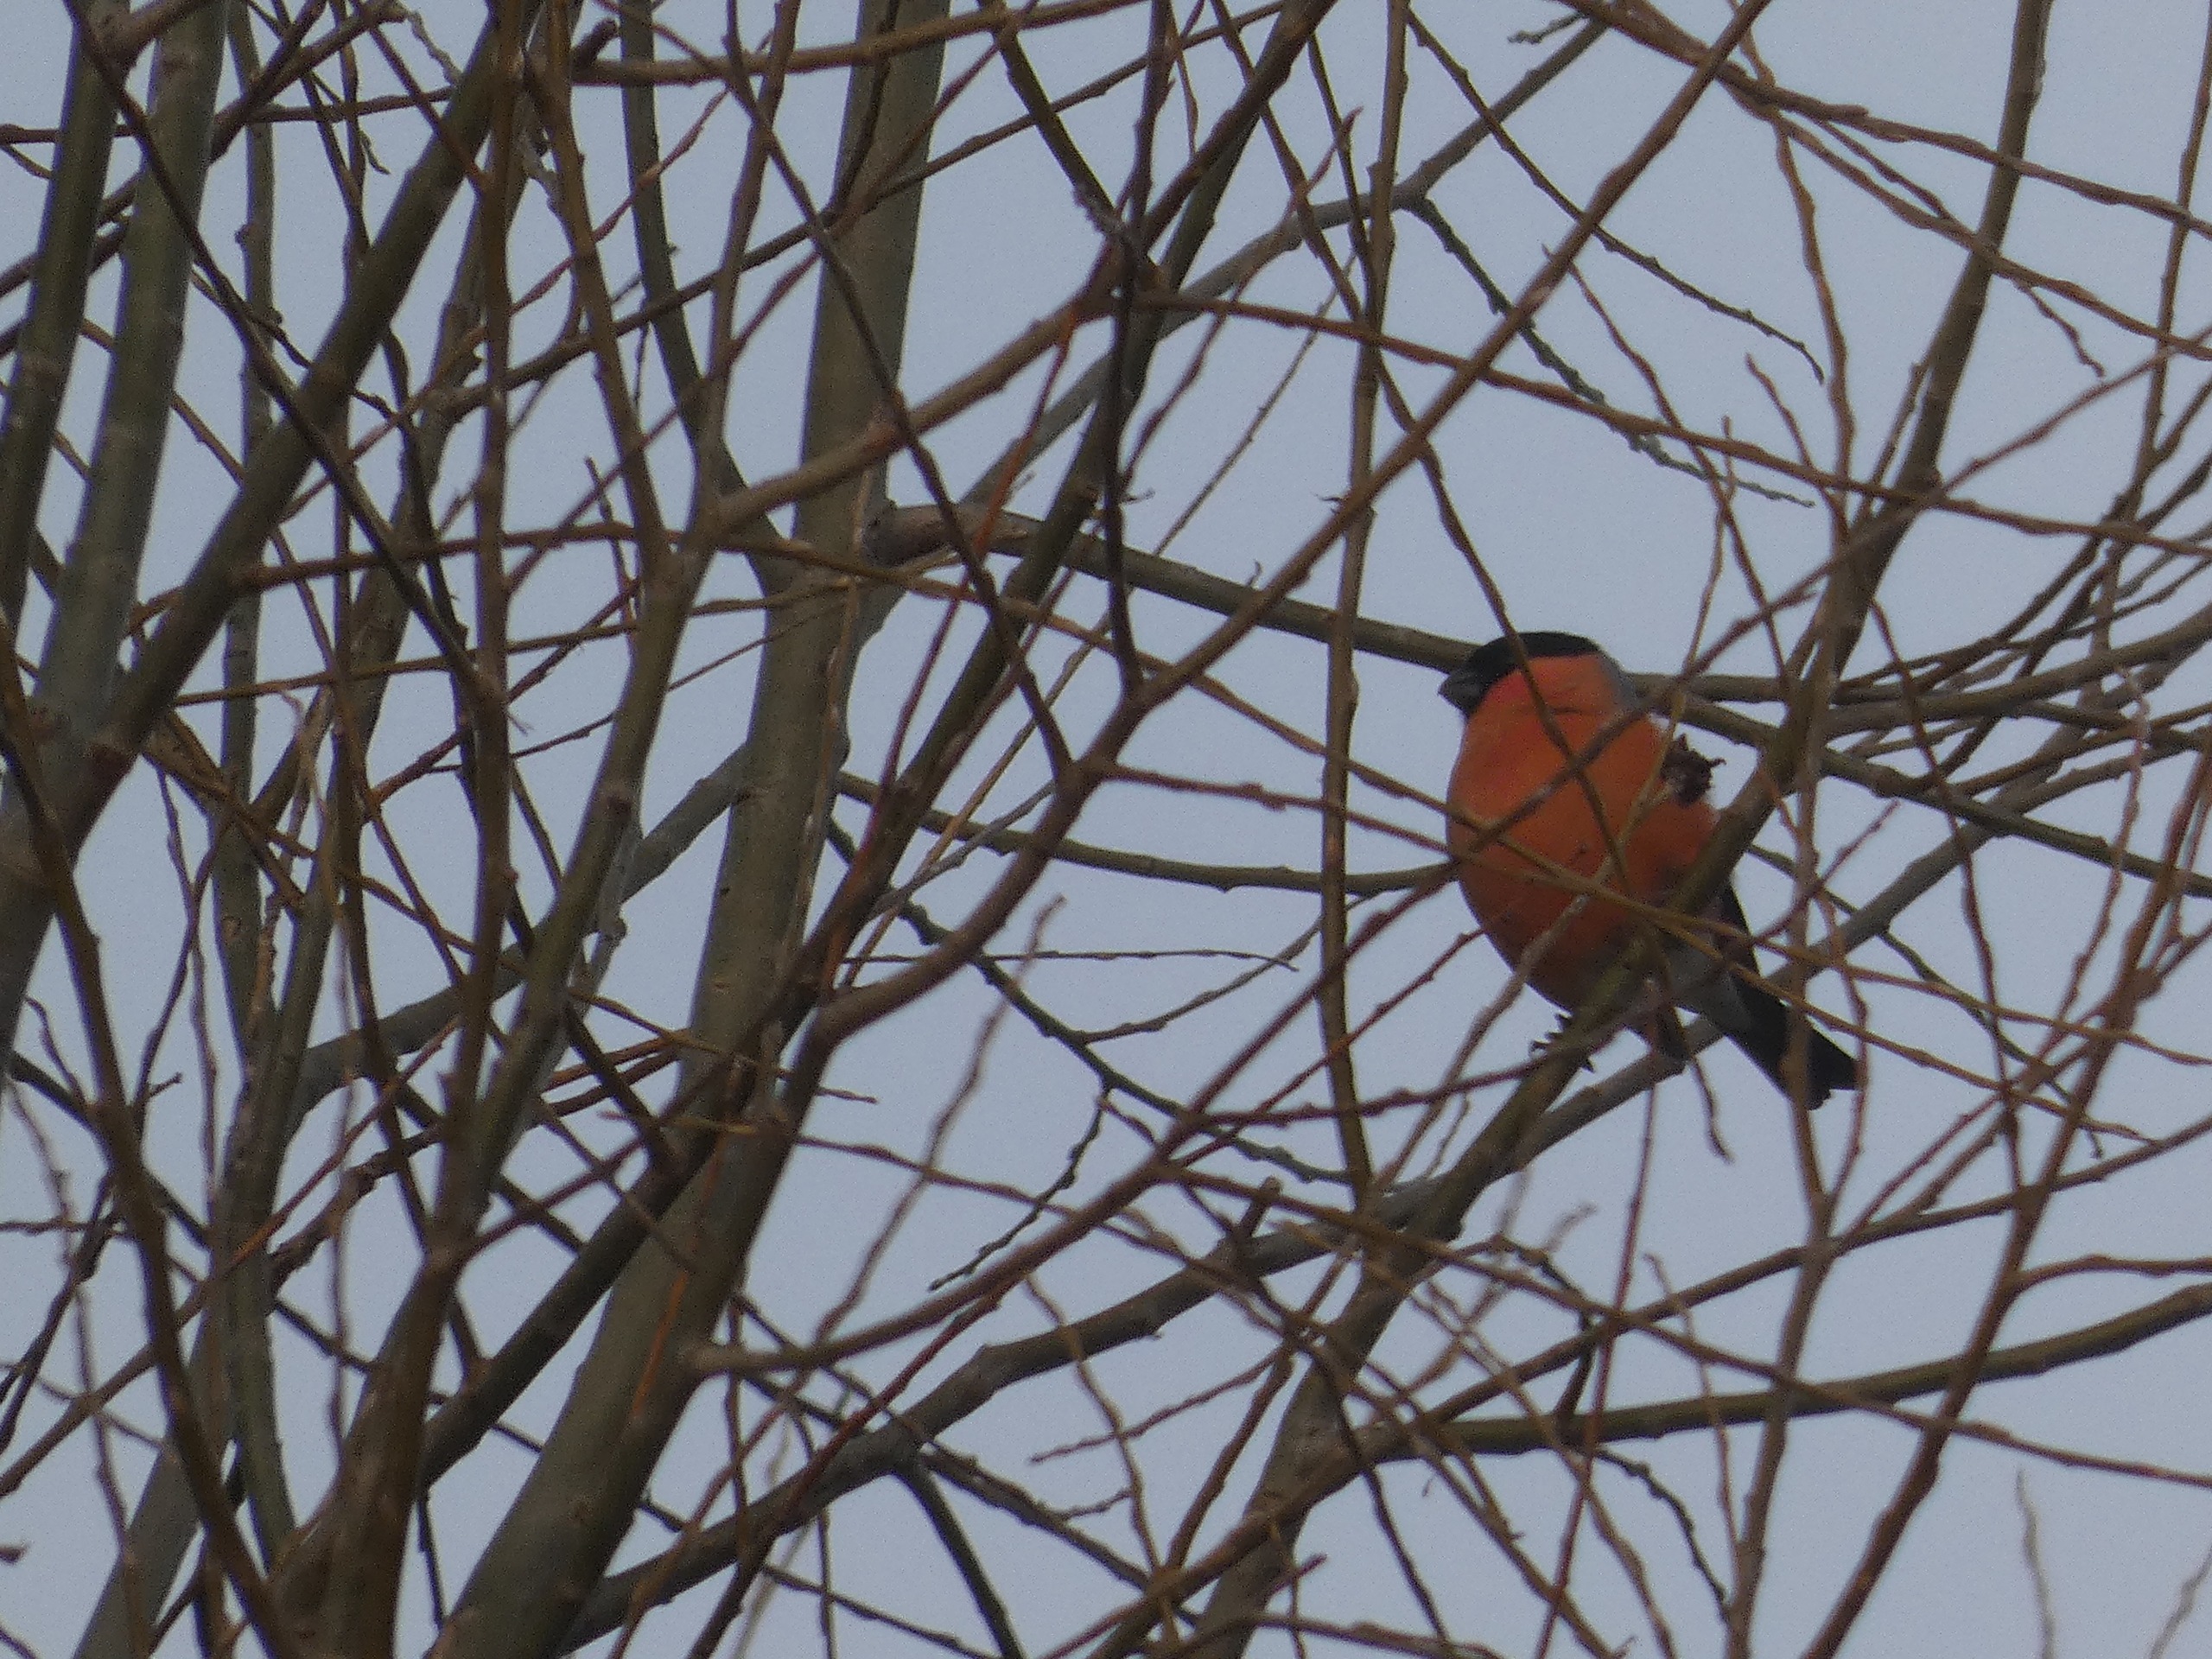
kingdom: Animalia
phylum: Chordata
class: Aves
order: Passeriformes
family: Fringillidae
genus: Pyrrhula
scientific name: Pyrrhula pyrrhula
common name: Dompap
